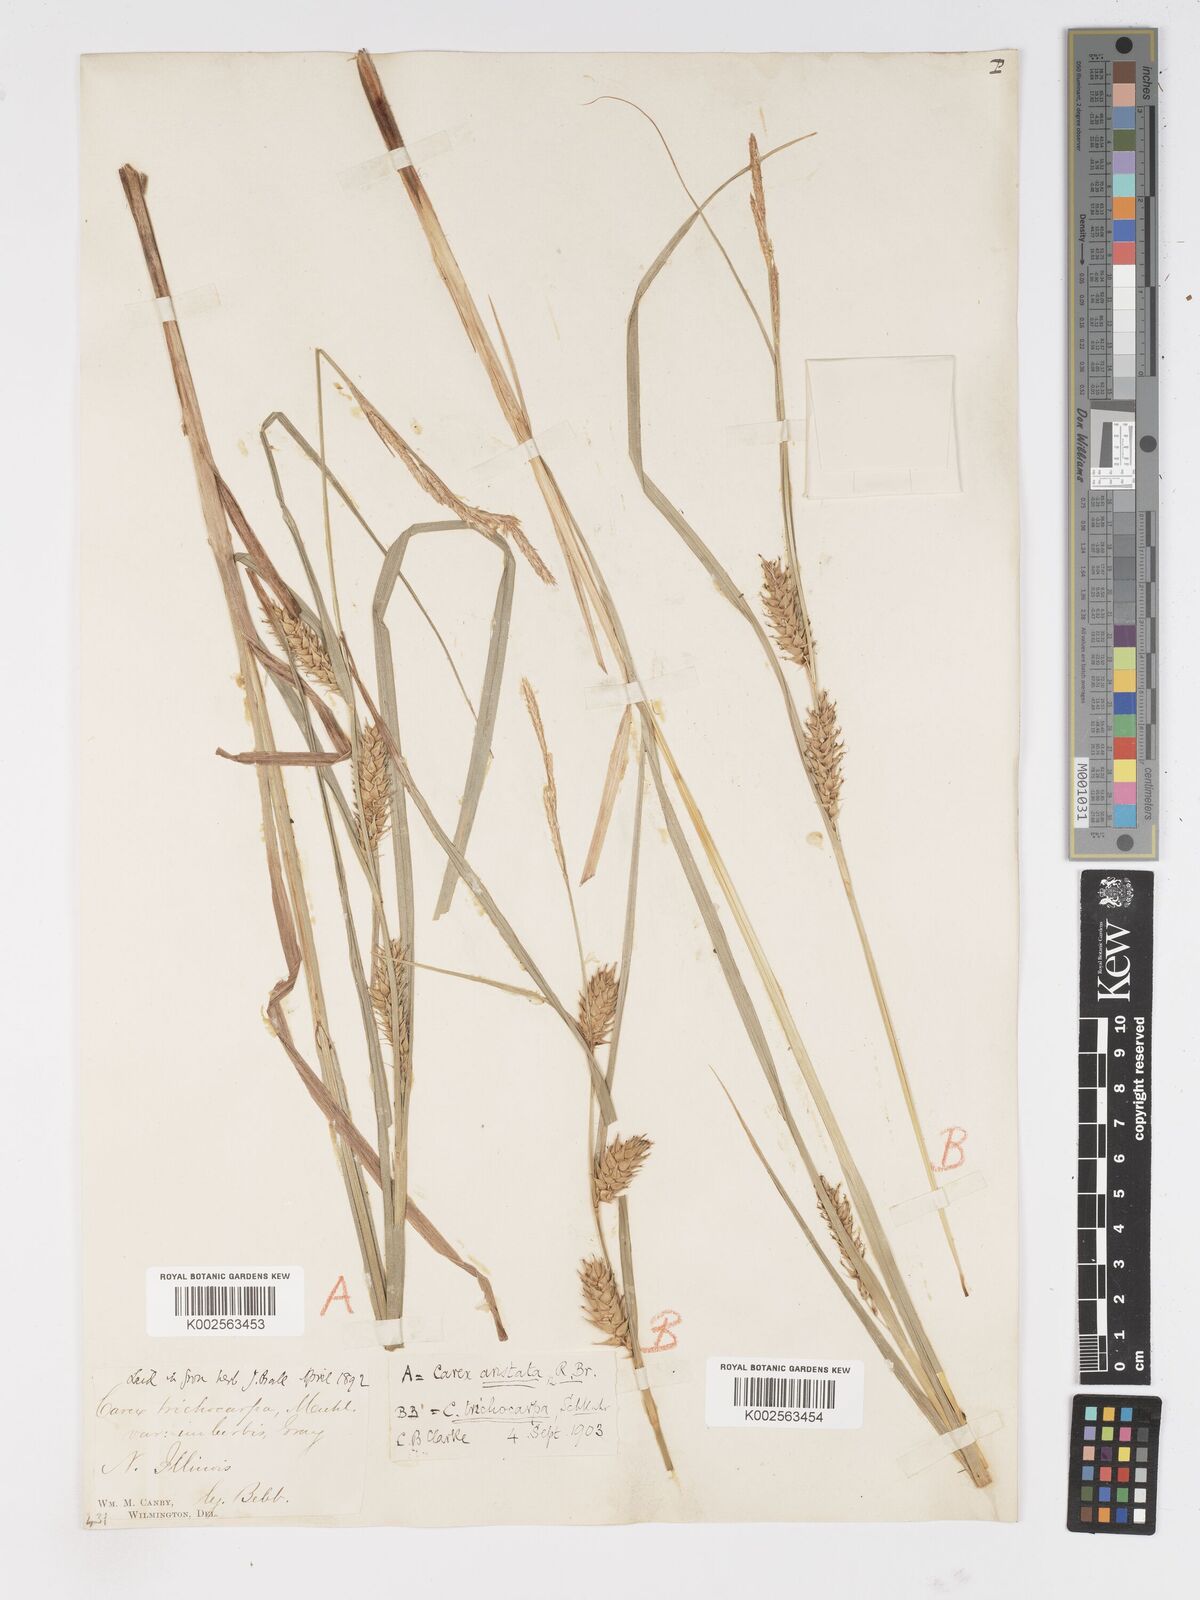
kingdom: Plantae
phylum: Tracheophyta
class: Liliopsida
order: Poales
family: Cyperaceae
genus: Carex
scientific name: Carex trichocarpa
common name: Hairy-fruited lake sedge
